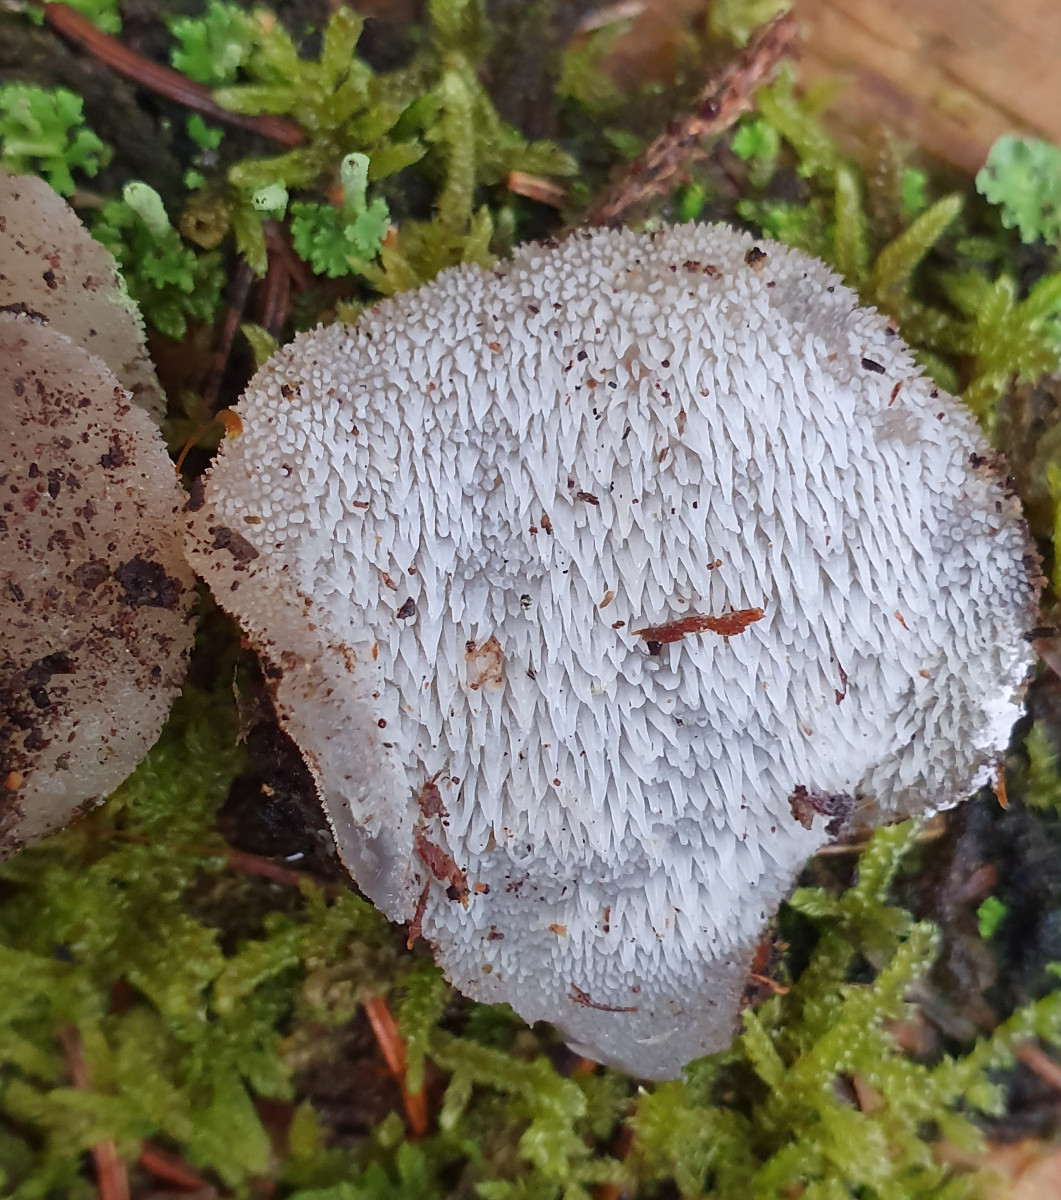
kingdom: Fungi
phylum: Basidiomycota
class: Agaricomycetes
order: Auriculariales
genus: Pseudohydnum
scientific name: Pseudohydnum gelatinosum
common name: bævretand
